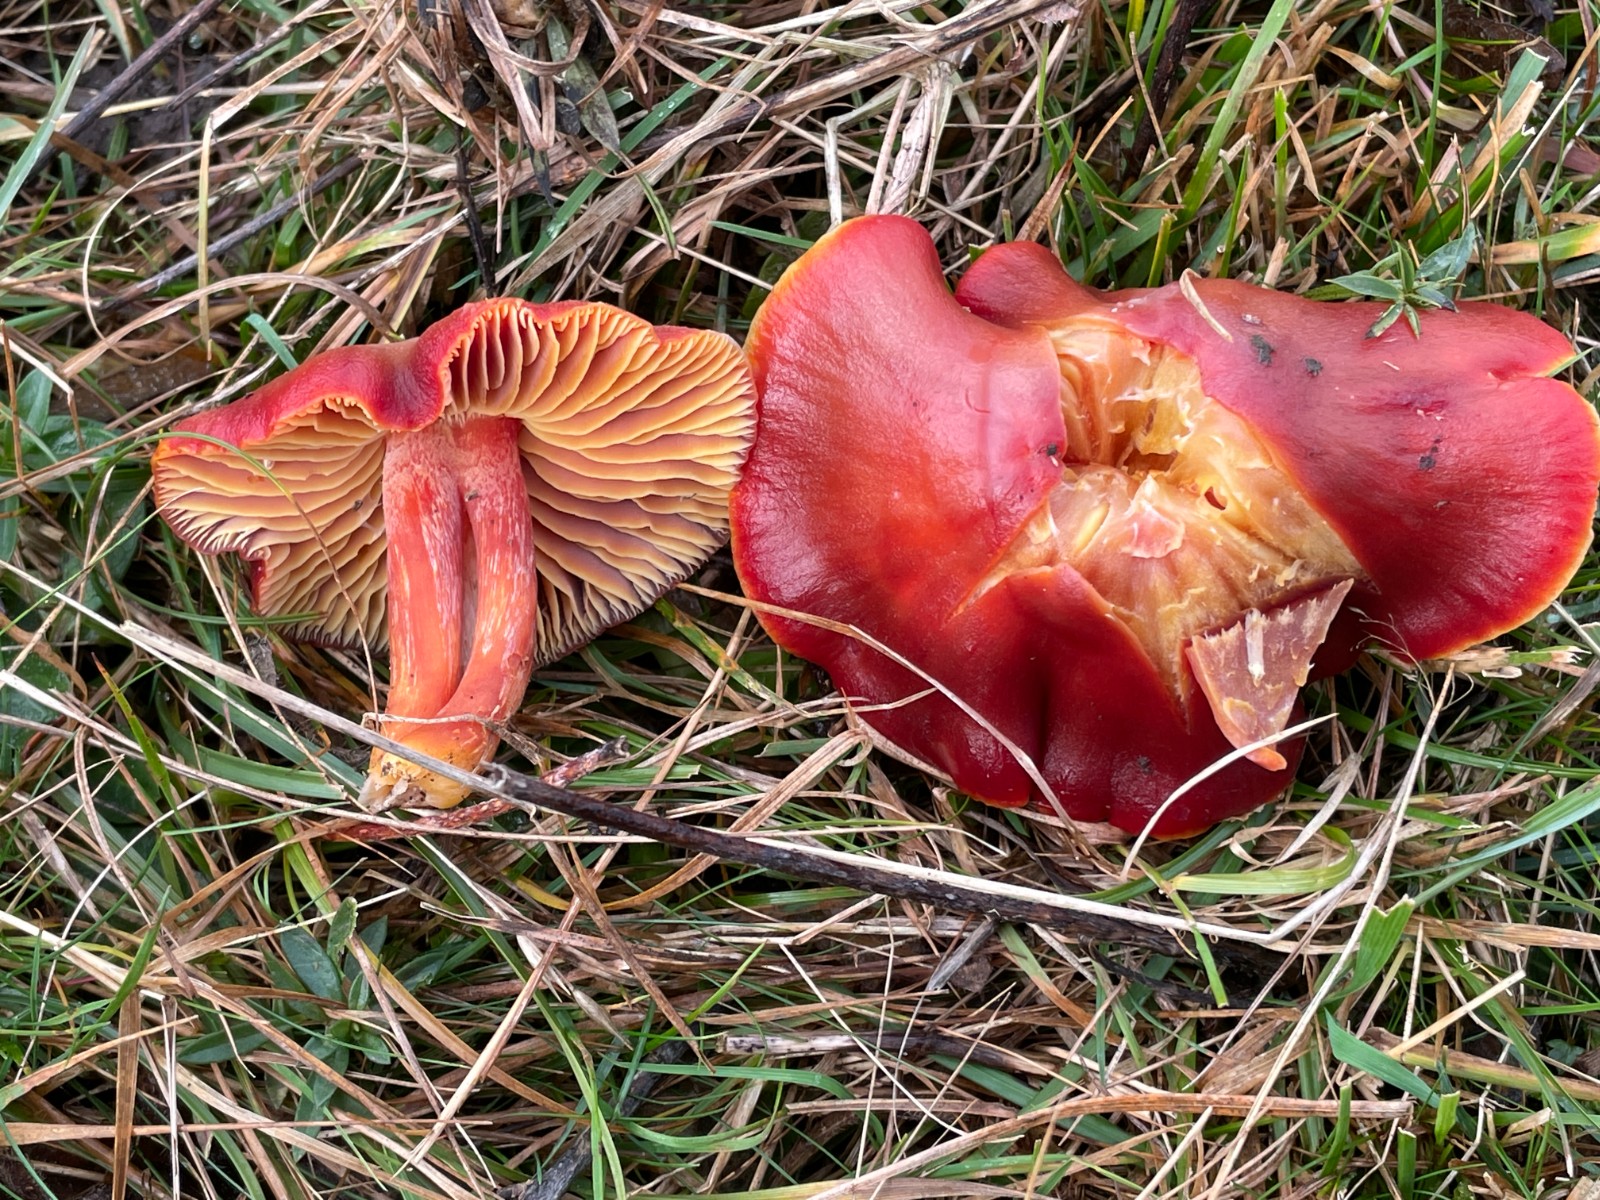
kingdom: Fungi
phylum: Basidiomycota
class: Agaricomycetes
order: Agaricales
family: Hygrophoraceae
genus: Hygrocybe
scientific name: Hygrocybe punicea
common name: skarlagen-vokshat
